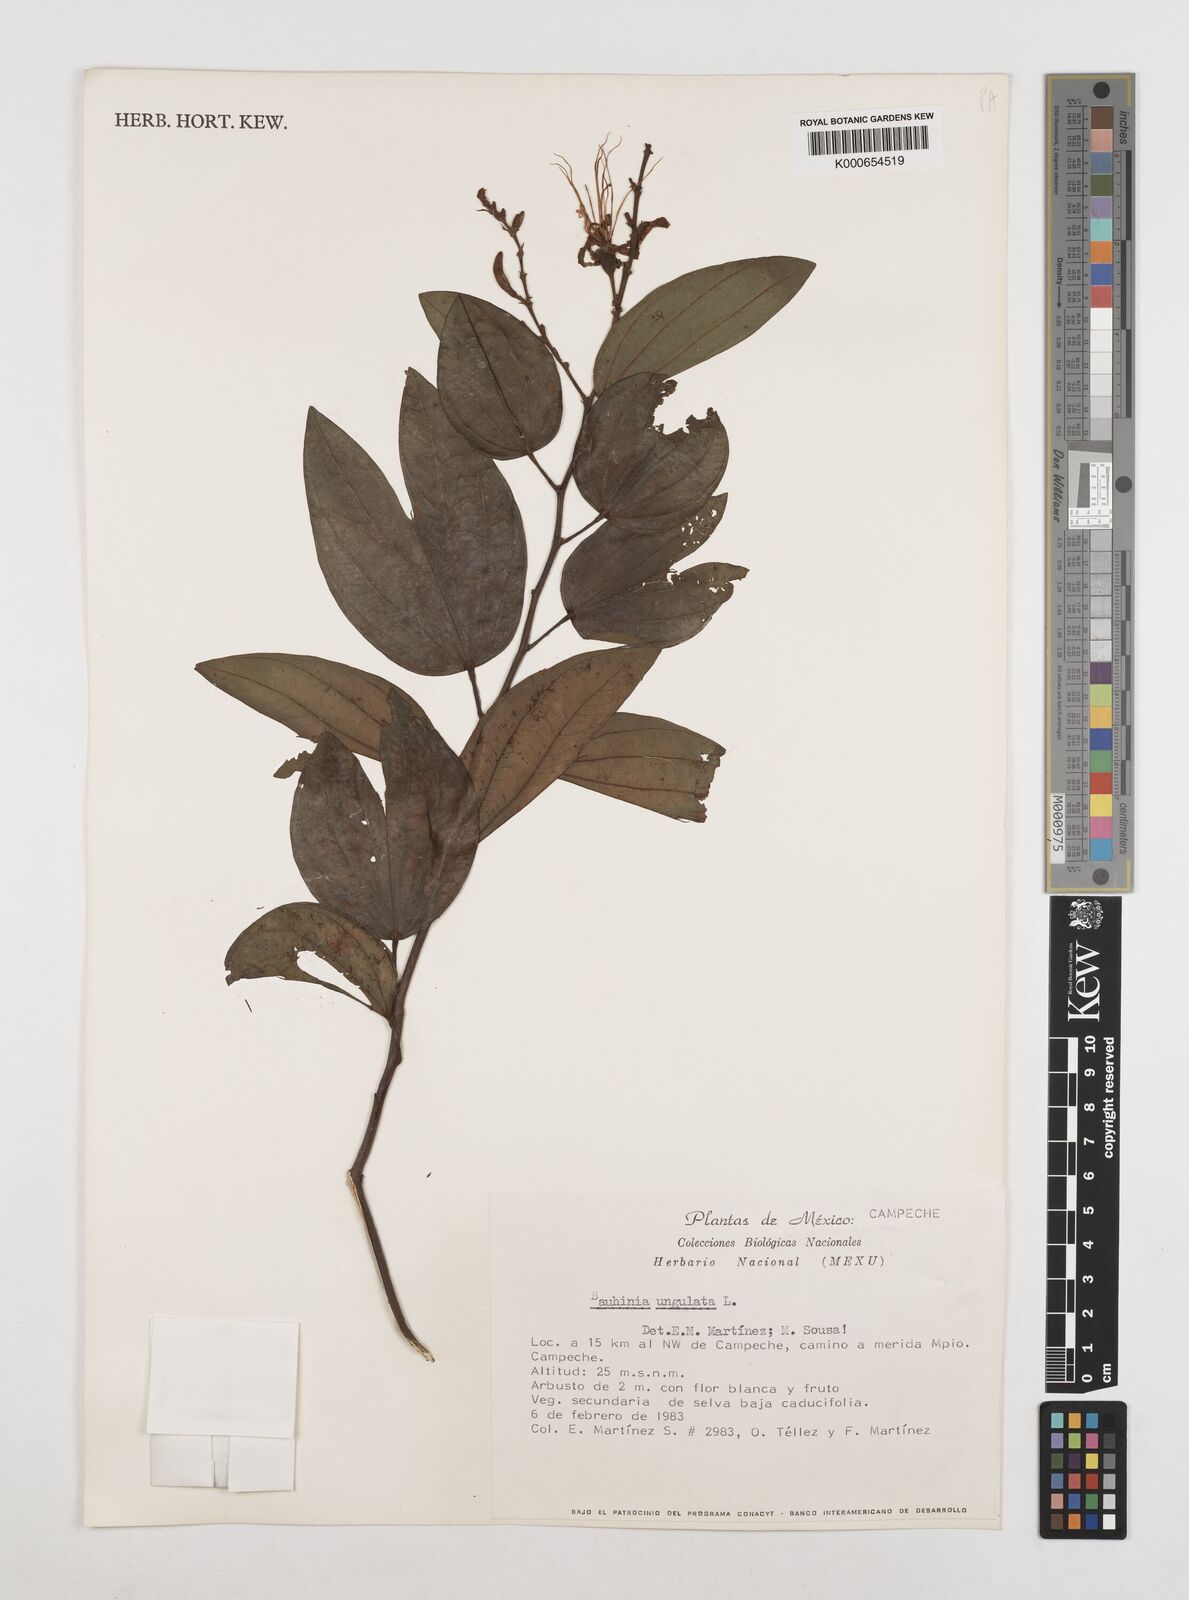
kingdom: Plantae
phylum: Tracheophyta
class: Magnoliopsida
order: Fabales
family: Fabaceae
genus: Bauhinia
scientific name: Bauhinia ungulata
